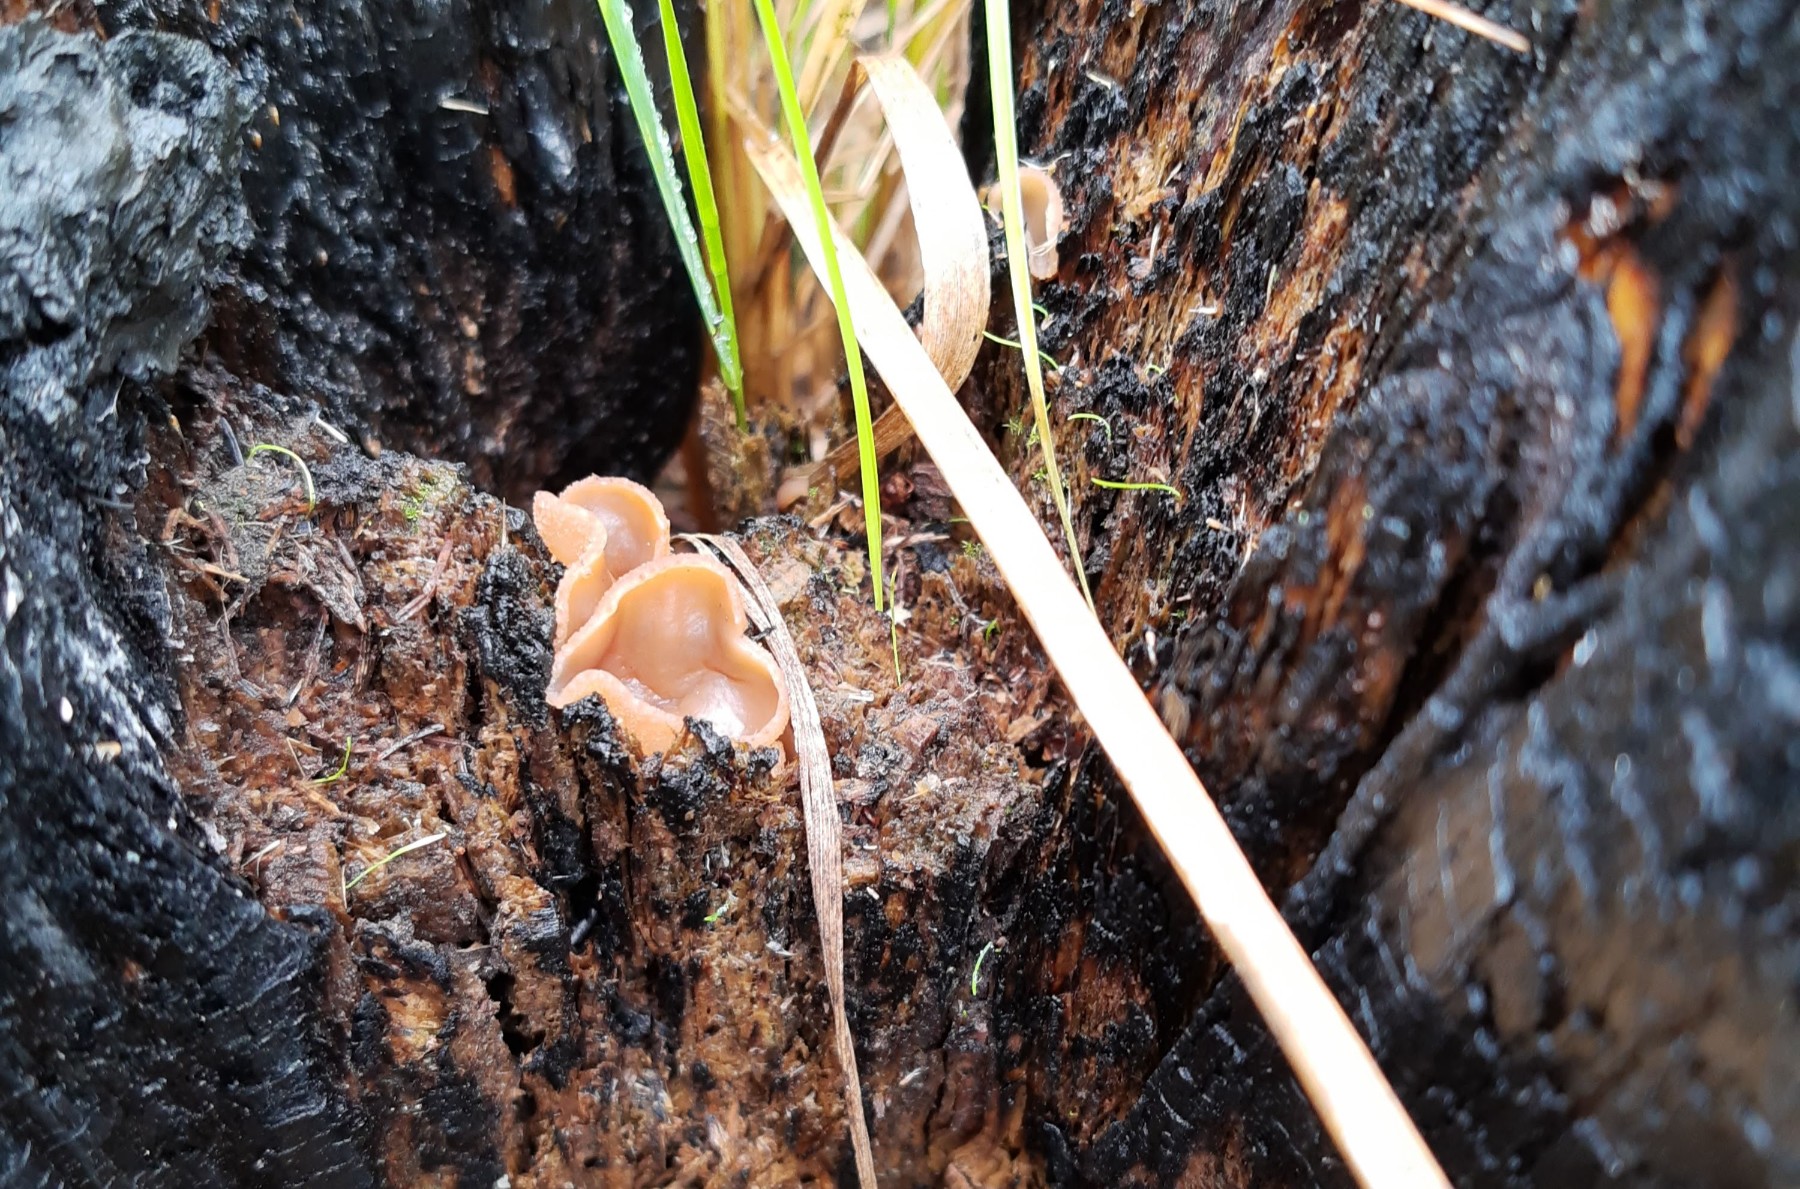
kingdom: Fungi
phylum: Ascomycota
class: Pezizomycetes
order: Pezizales
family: Pezizaceae
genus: Peziza
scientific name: Peziza echinospora
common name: pigsporet bægersvamp
